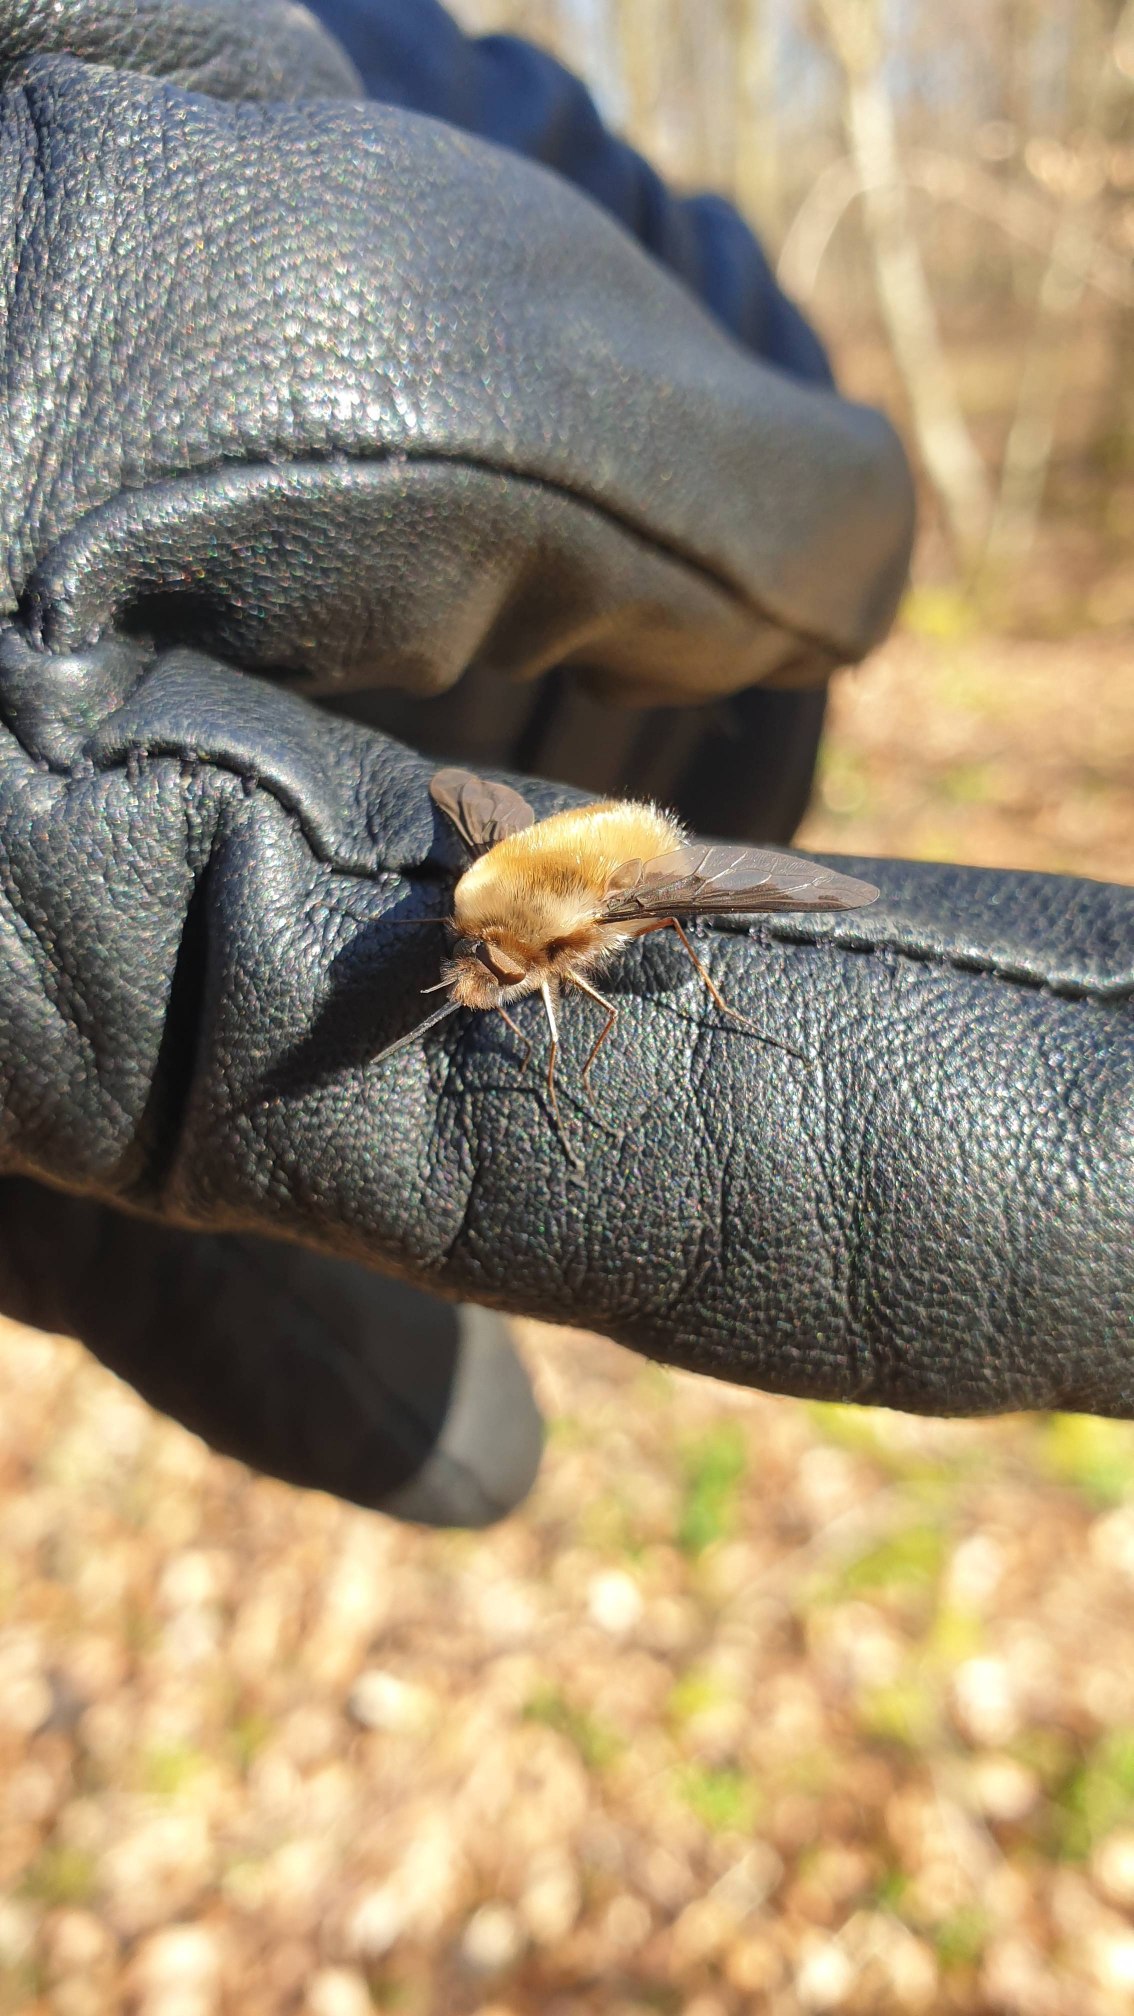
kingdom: Animalia
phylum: Arthropoda
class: Insecta
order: Diptera
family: Bombyliidae
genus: Bombylius
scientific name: Bombylius major
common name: Stor humleflue
